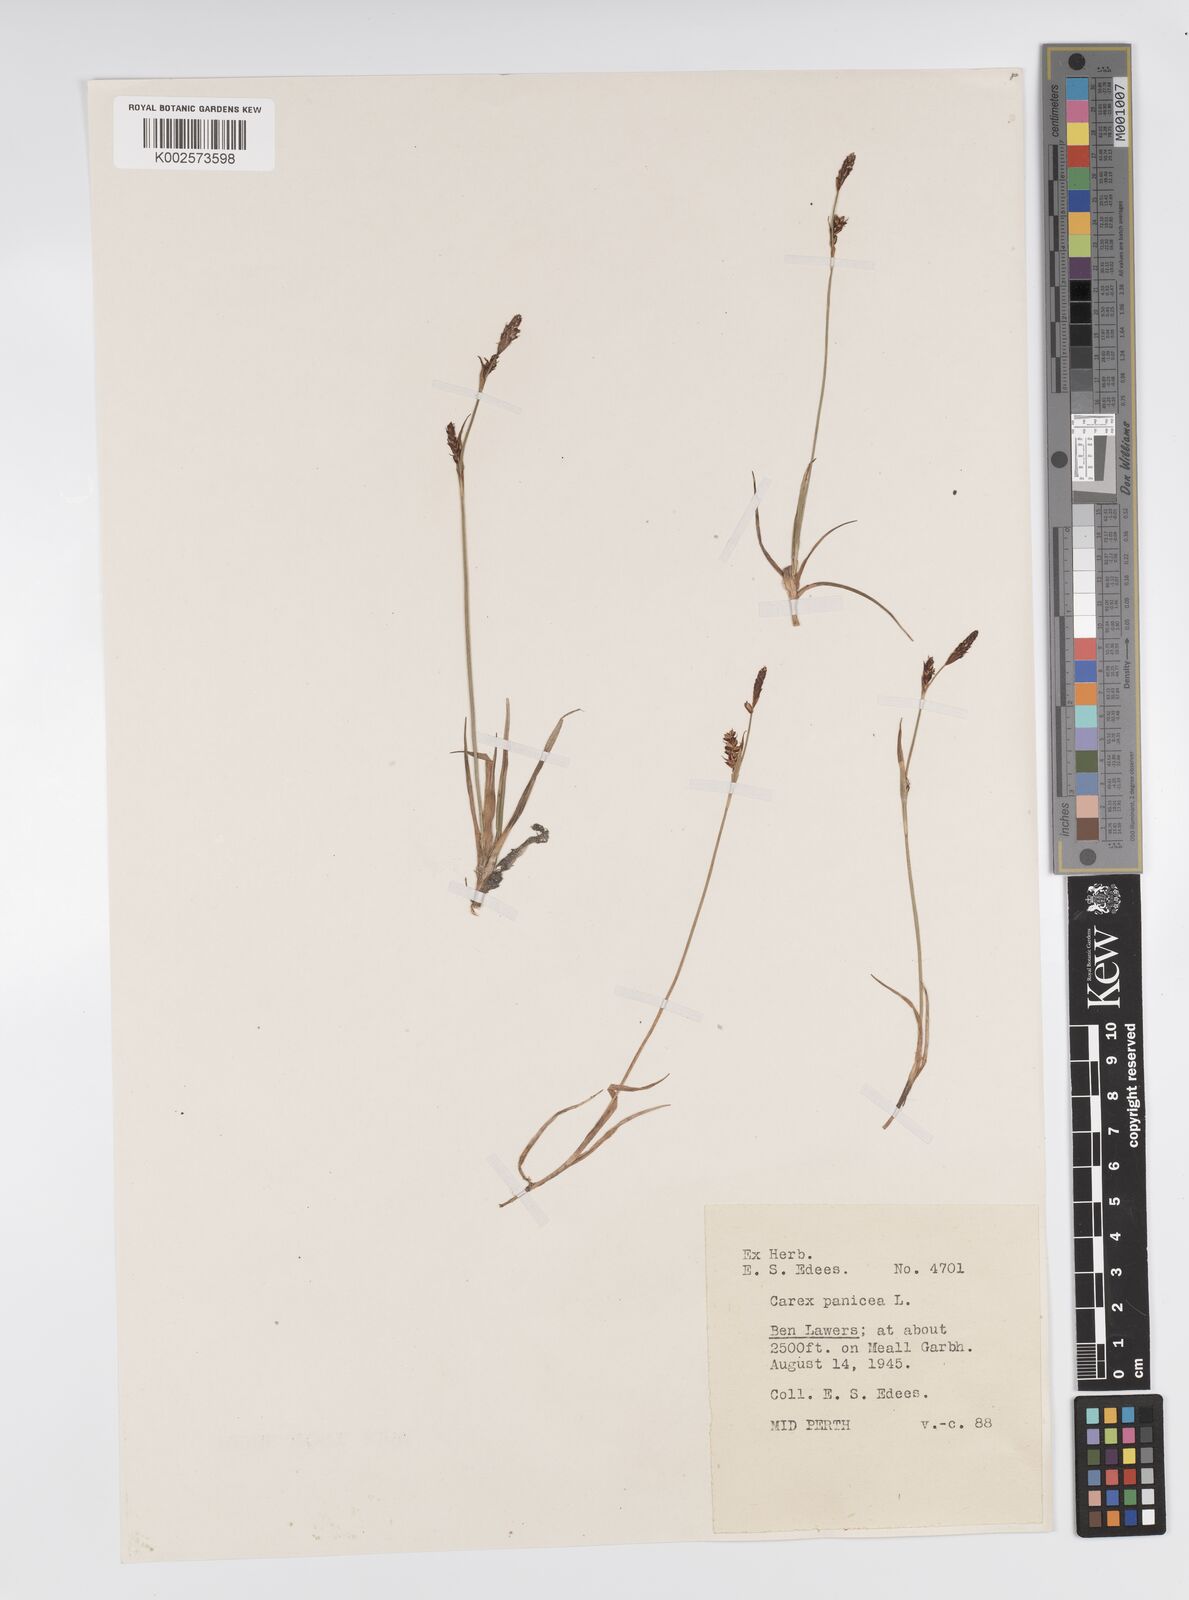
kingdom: Plantae
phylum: Tracheophyta
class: Liliopsida
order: Poales
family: Cyperaceae
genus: Carex
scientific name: Carex panicea
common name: Carnation sedge
